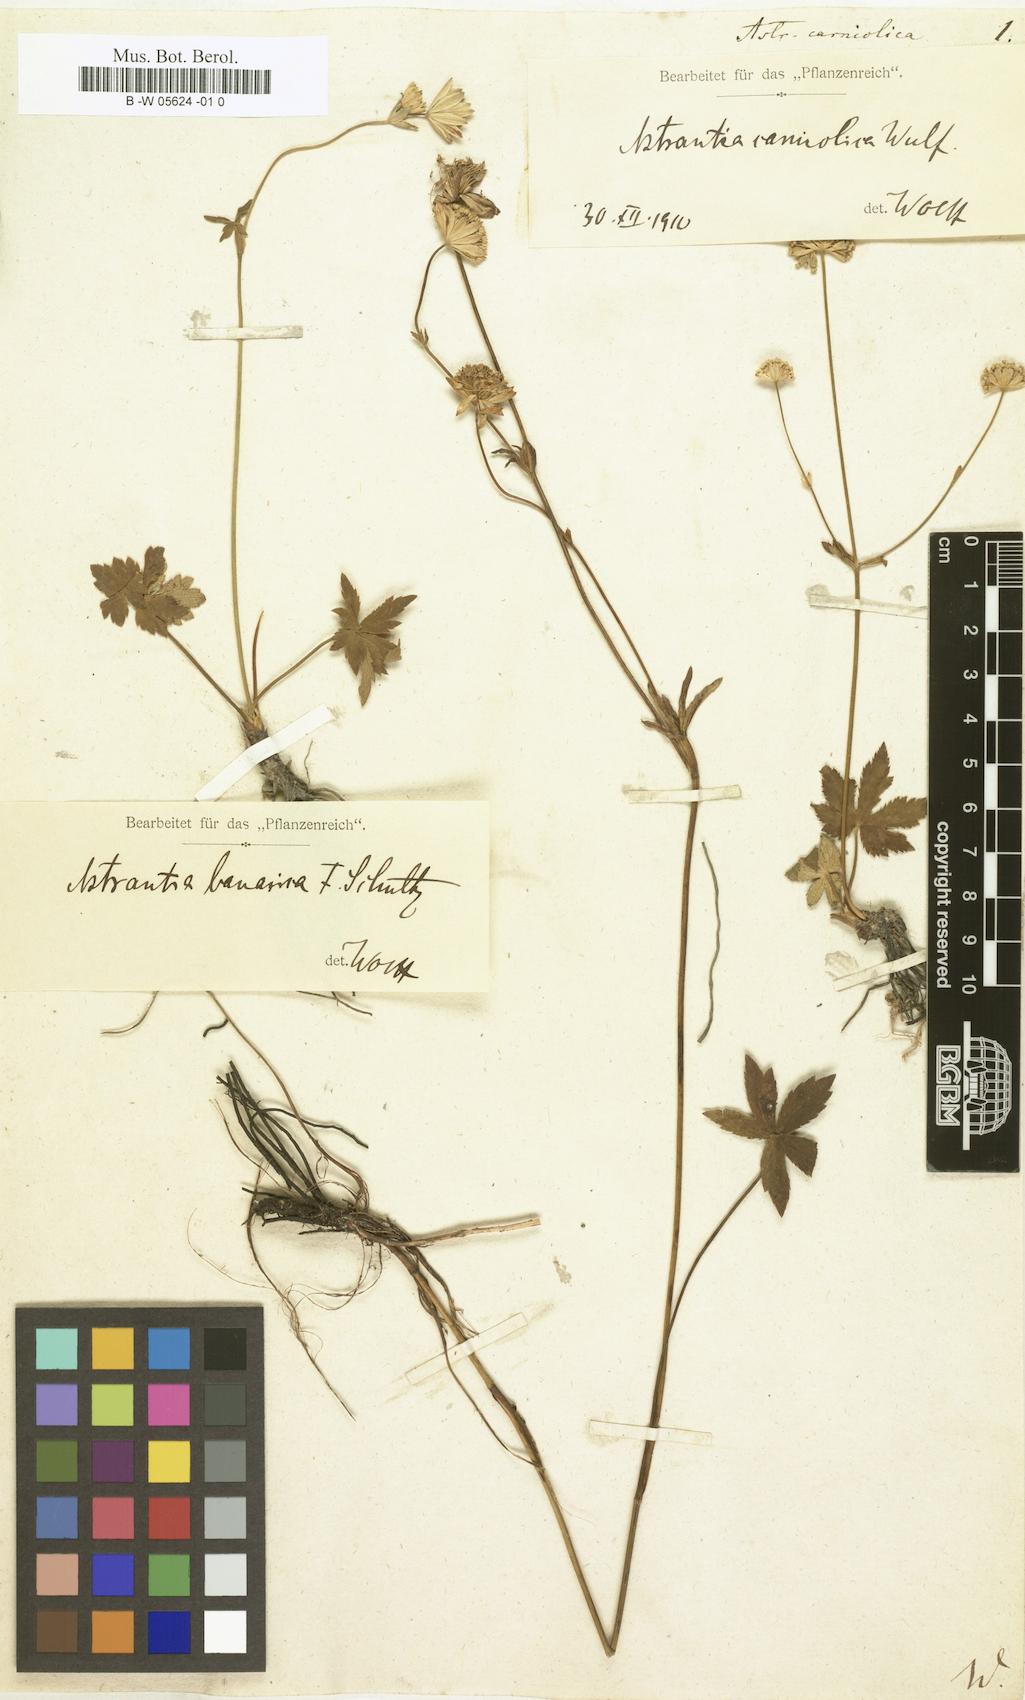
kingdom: Plantae
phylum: Tracheophyta
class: Magnoliopsida
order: Apiales
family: Apiaceae
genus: Astrantia
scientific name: Astrantia carniolica
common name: Carnic masterwort
